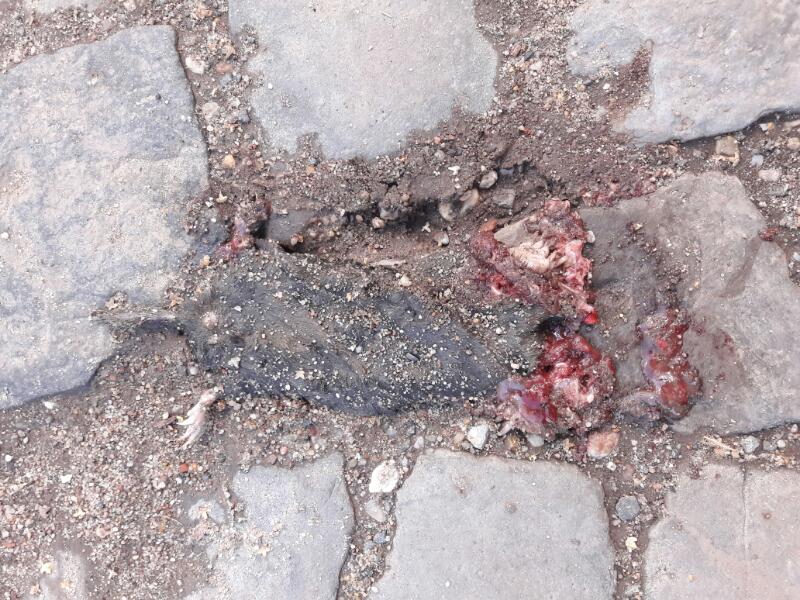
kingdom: Animalia
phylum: Chordata
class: Mammalia
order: Soricomorpha
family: Talpidae
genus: Talpa
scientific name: Talpa europaea
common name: European mole
